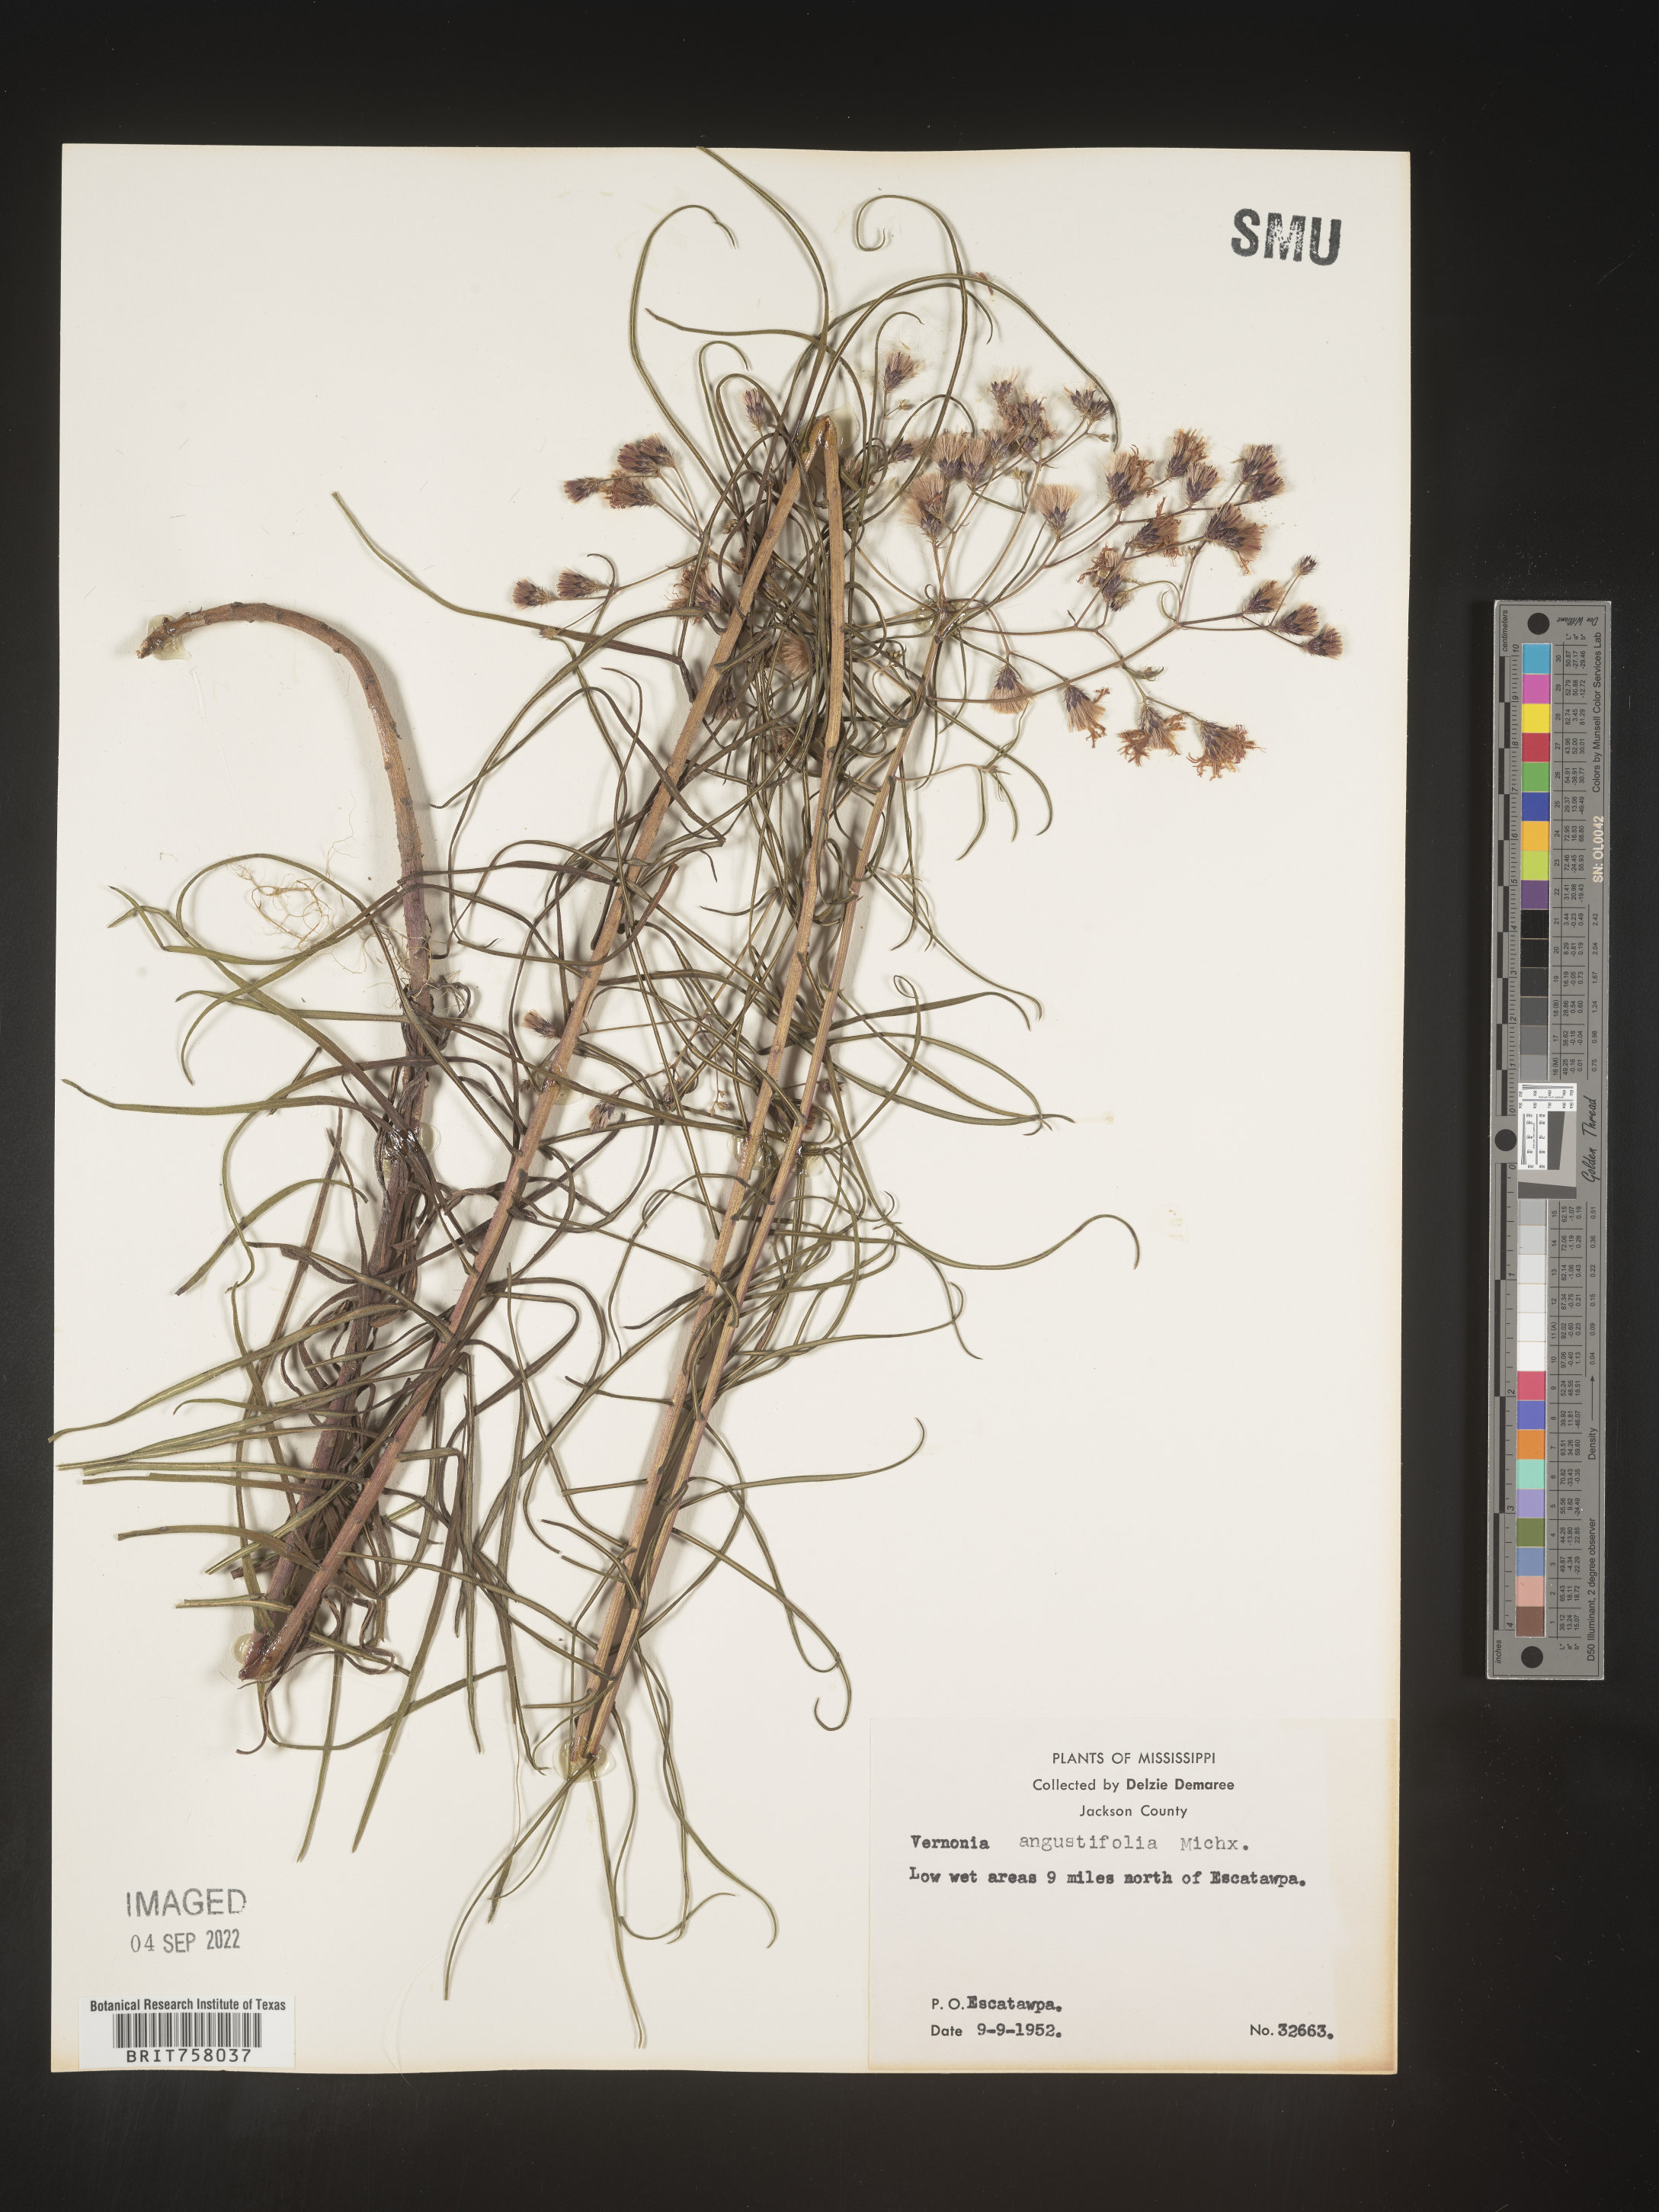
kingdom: Plantae
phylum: Tracheophyta
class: Magnoliopsida
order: Asterales
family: Asteraceae
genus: Vernonia
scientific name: Vernonia angustifolia
